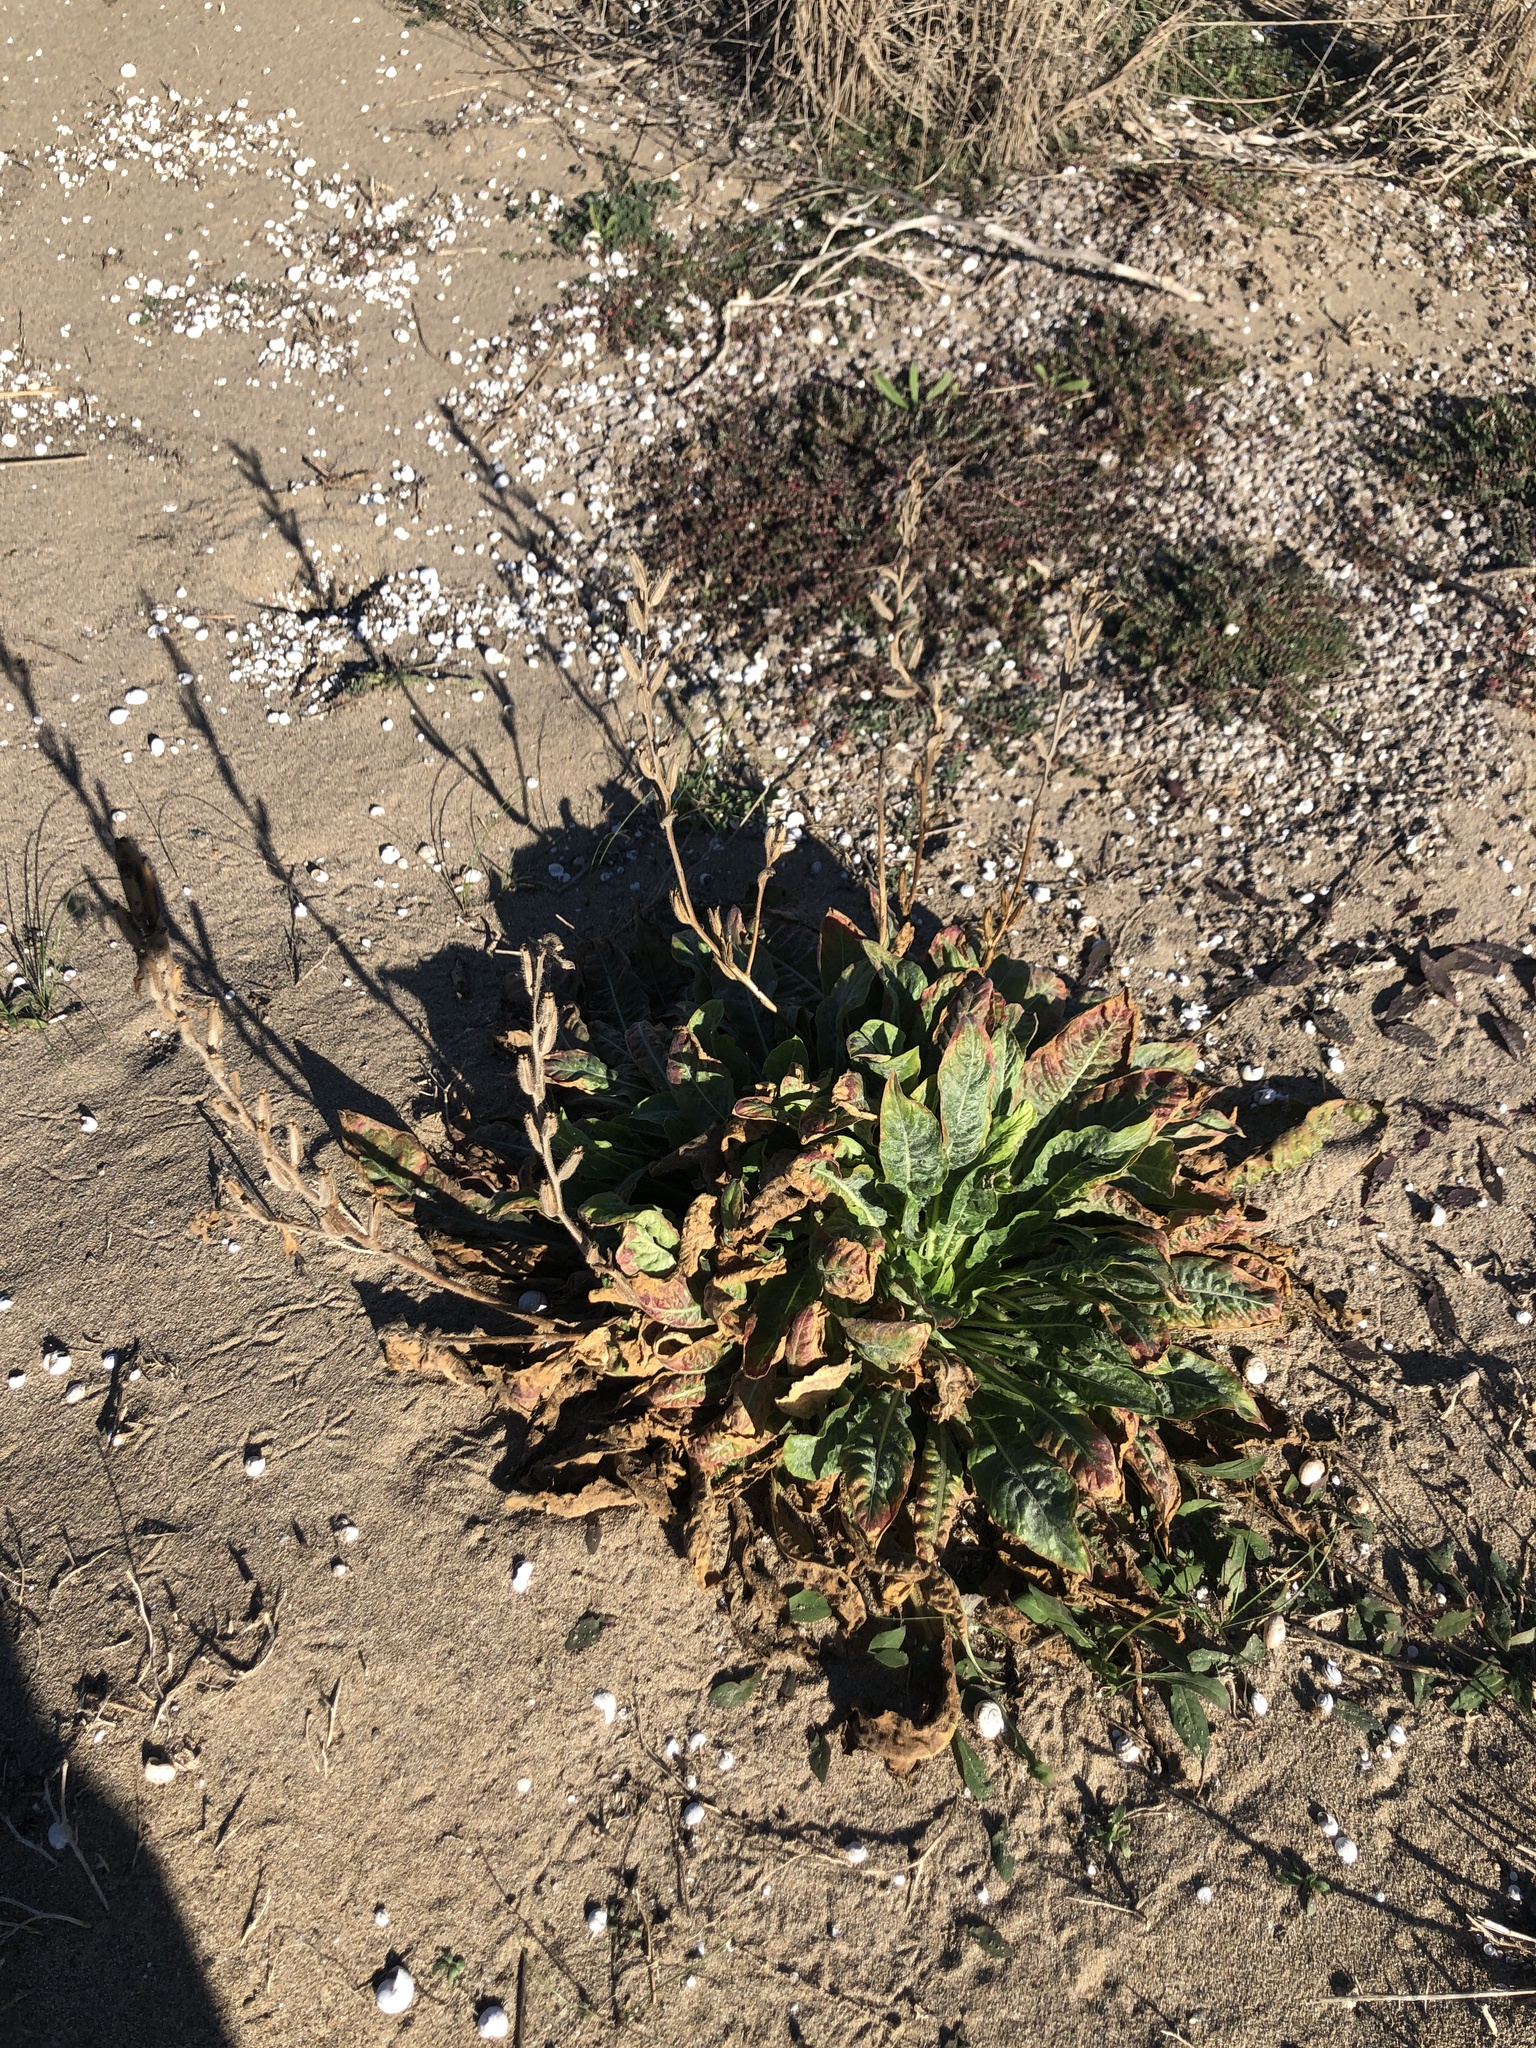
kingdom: Plantae
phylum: Tracheophyta
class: Magnoliopsida
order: Myrtales
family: Onagraceae
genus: Oenothera
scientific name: Oenothera glazioviana
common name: Large-flowered evening-primrose
